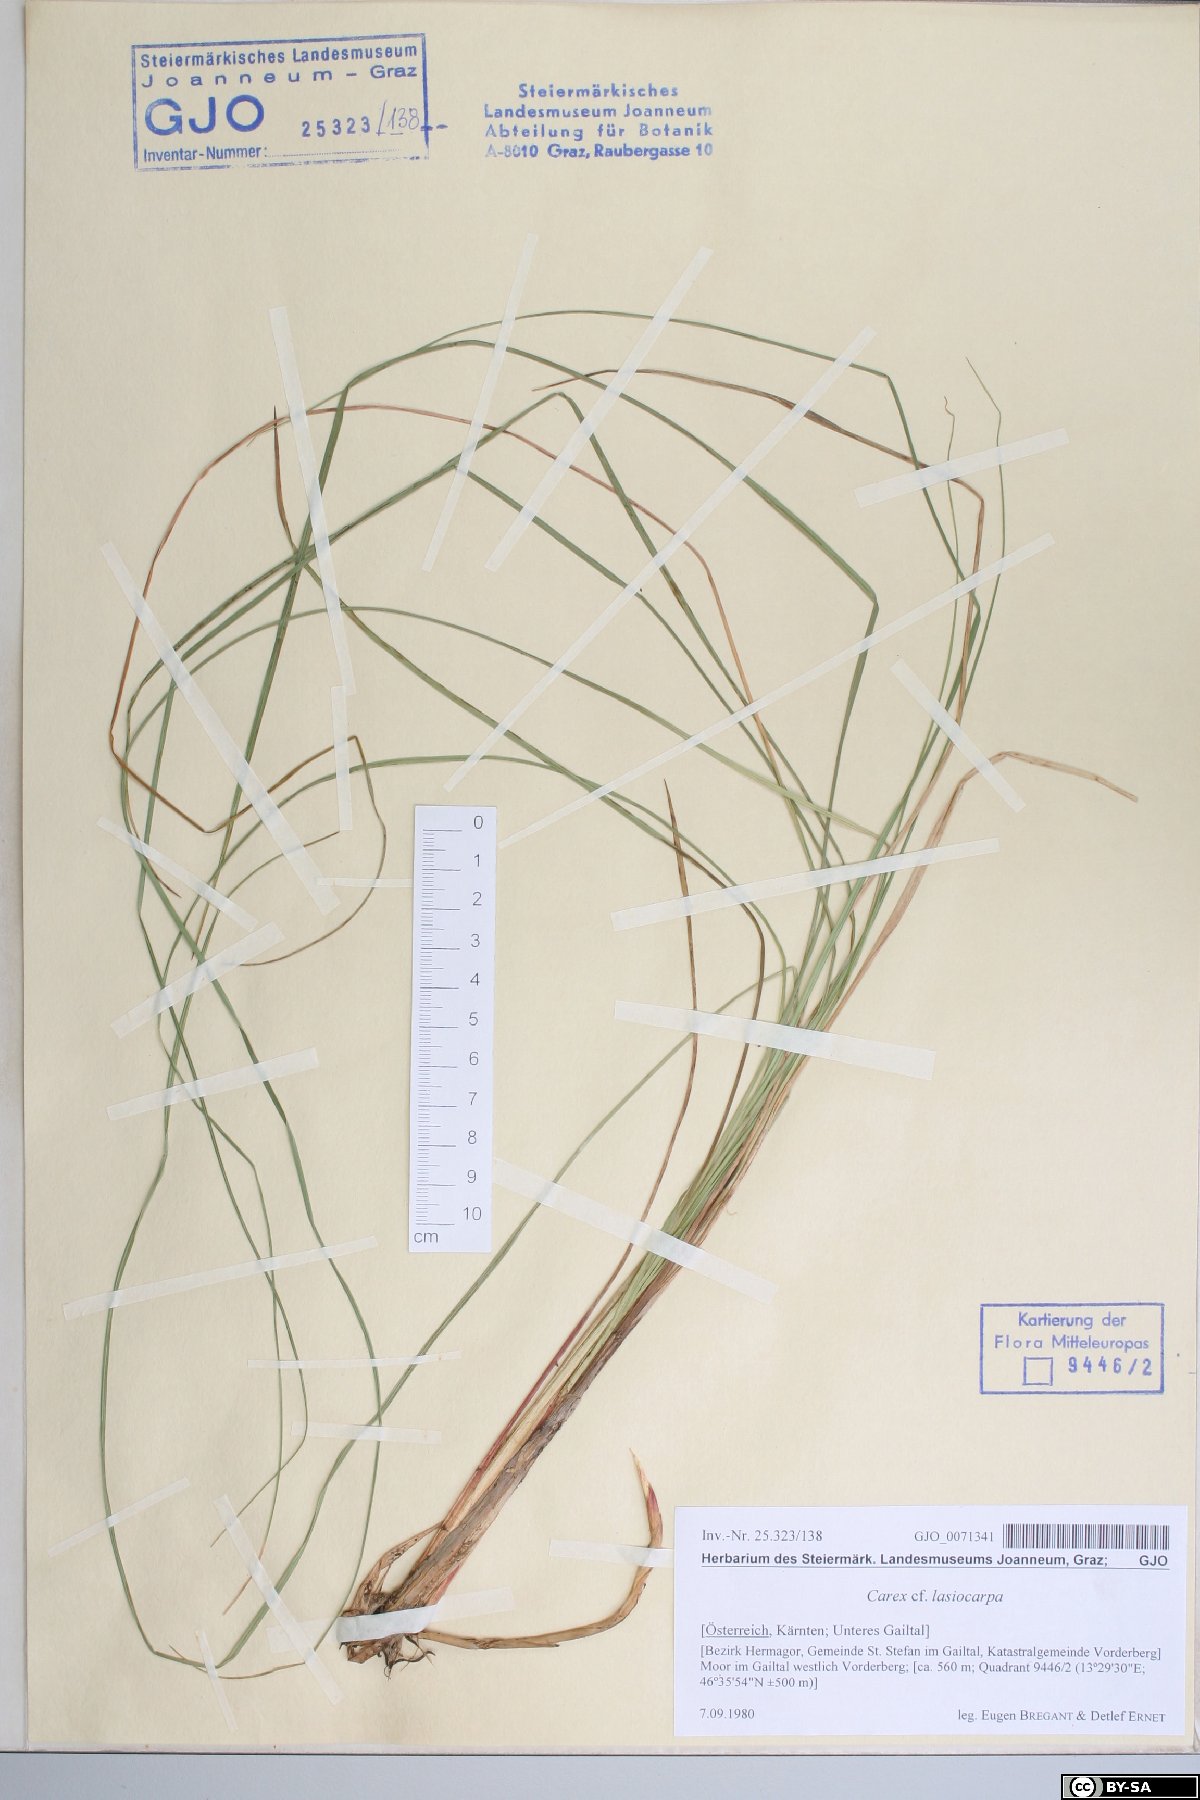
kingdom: Plantae
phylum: Tracheophyta
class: Liliopsida
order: Poales
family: Cyperaceae
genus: Carex
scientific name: Carex lasiocarpa
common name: Slender sedge
